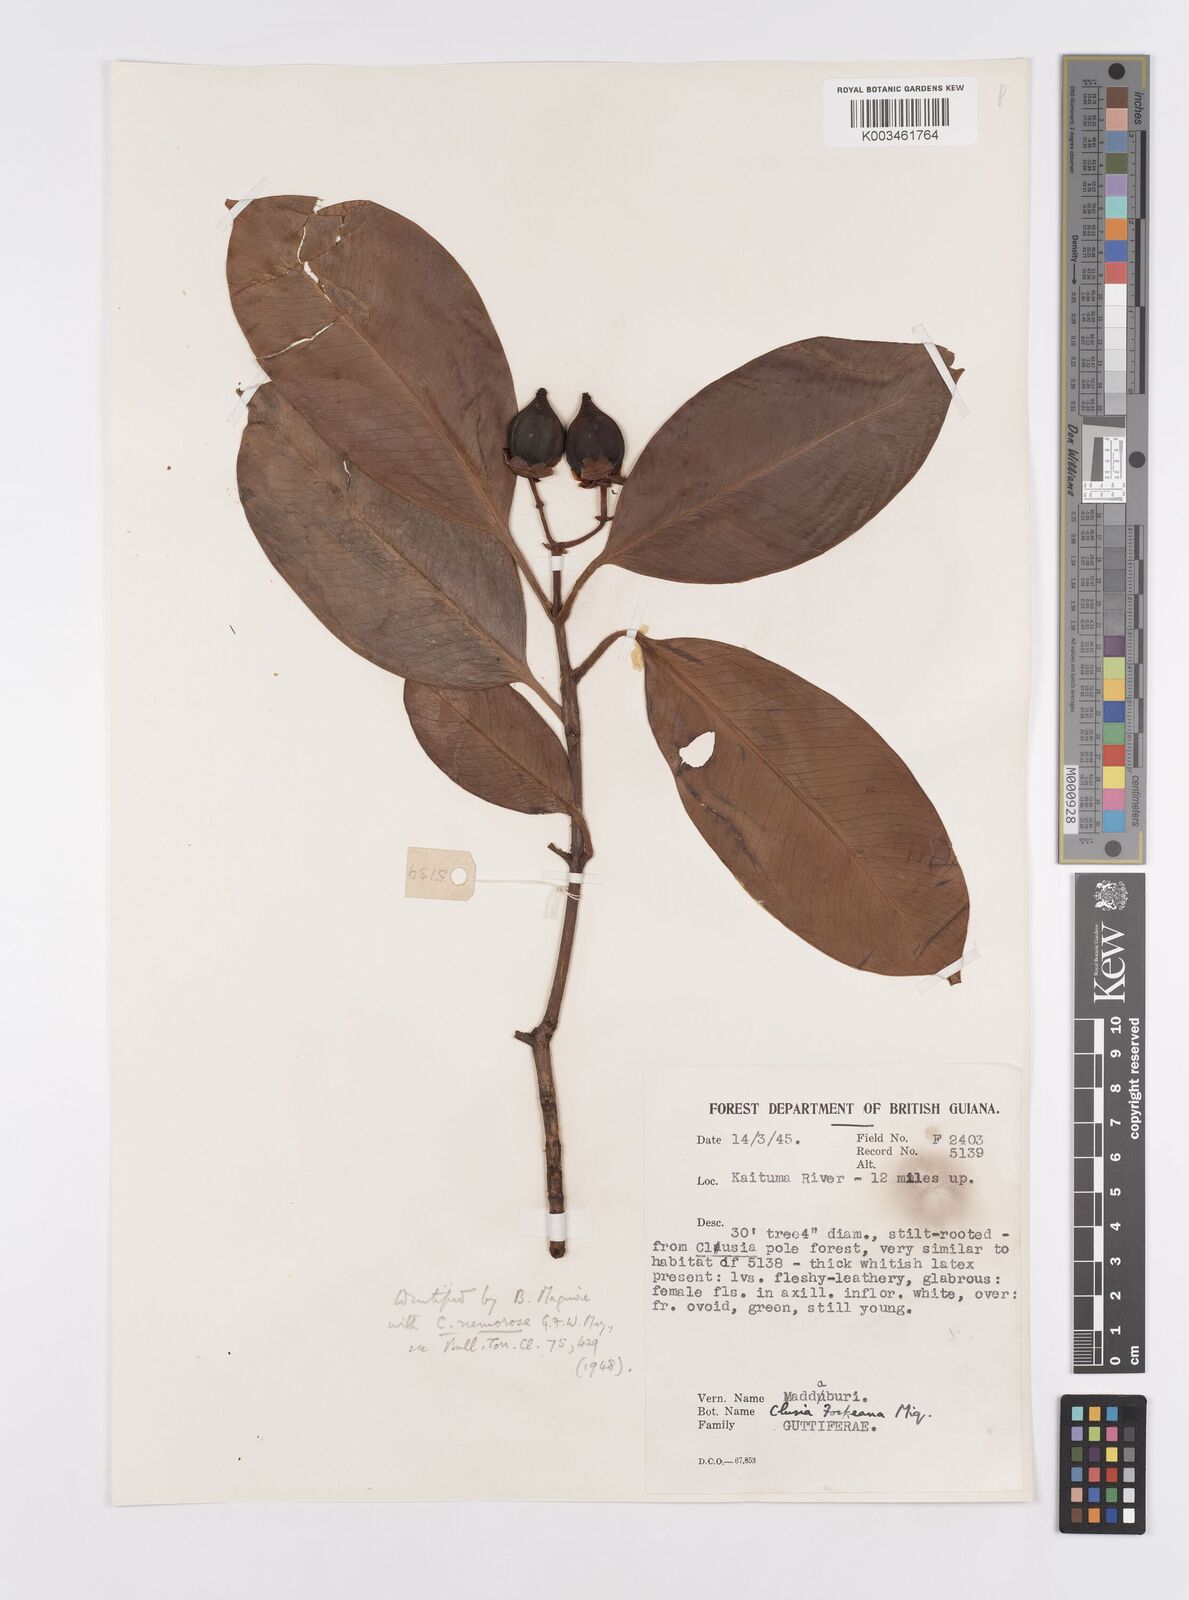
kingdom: Plantae
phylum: Tracheophyta
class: Magnoliopsida
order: Malpighiales
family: Clusiaceae
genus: Clusia
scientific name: Clusia fockeana
